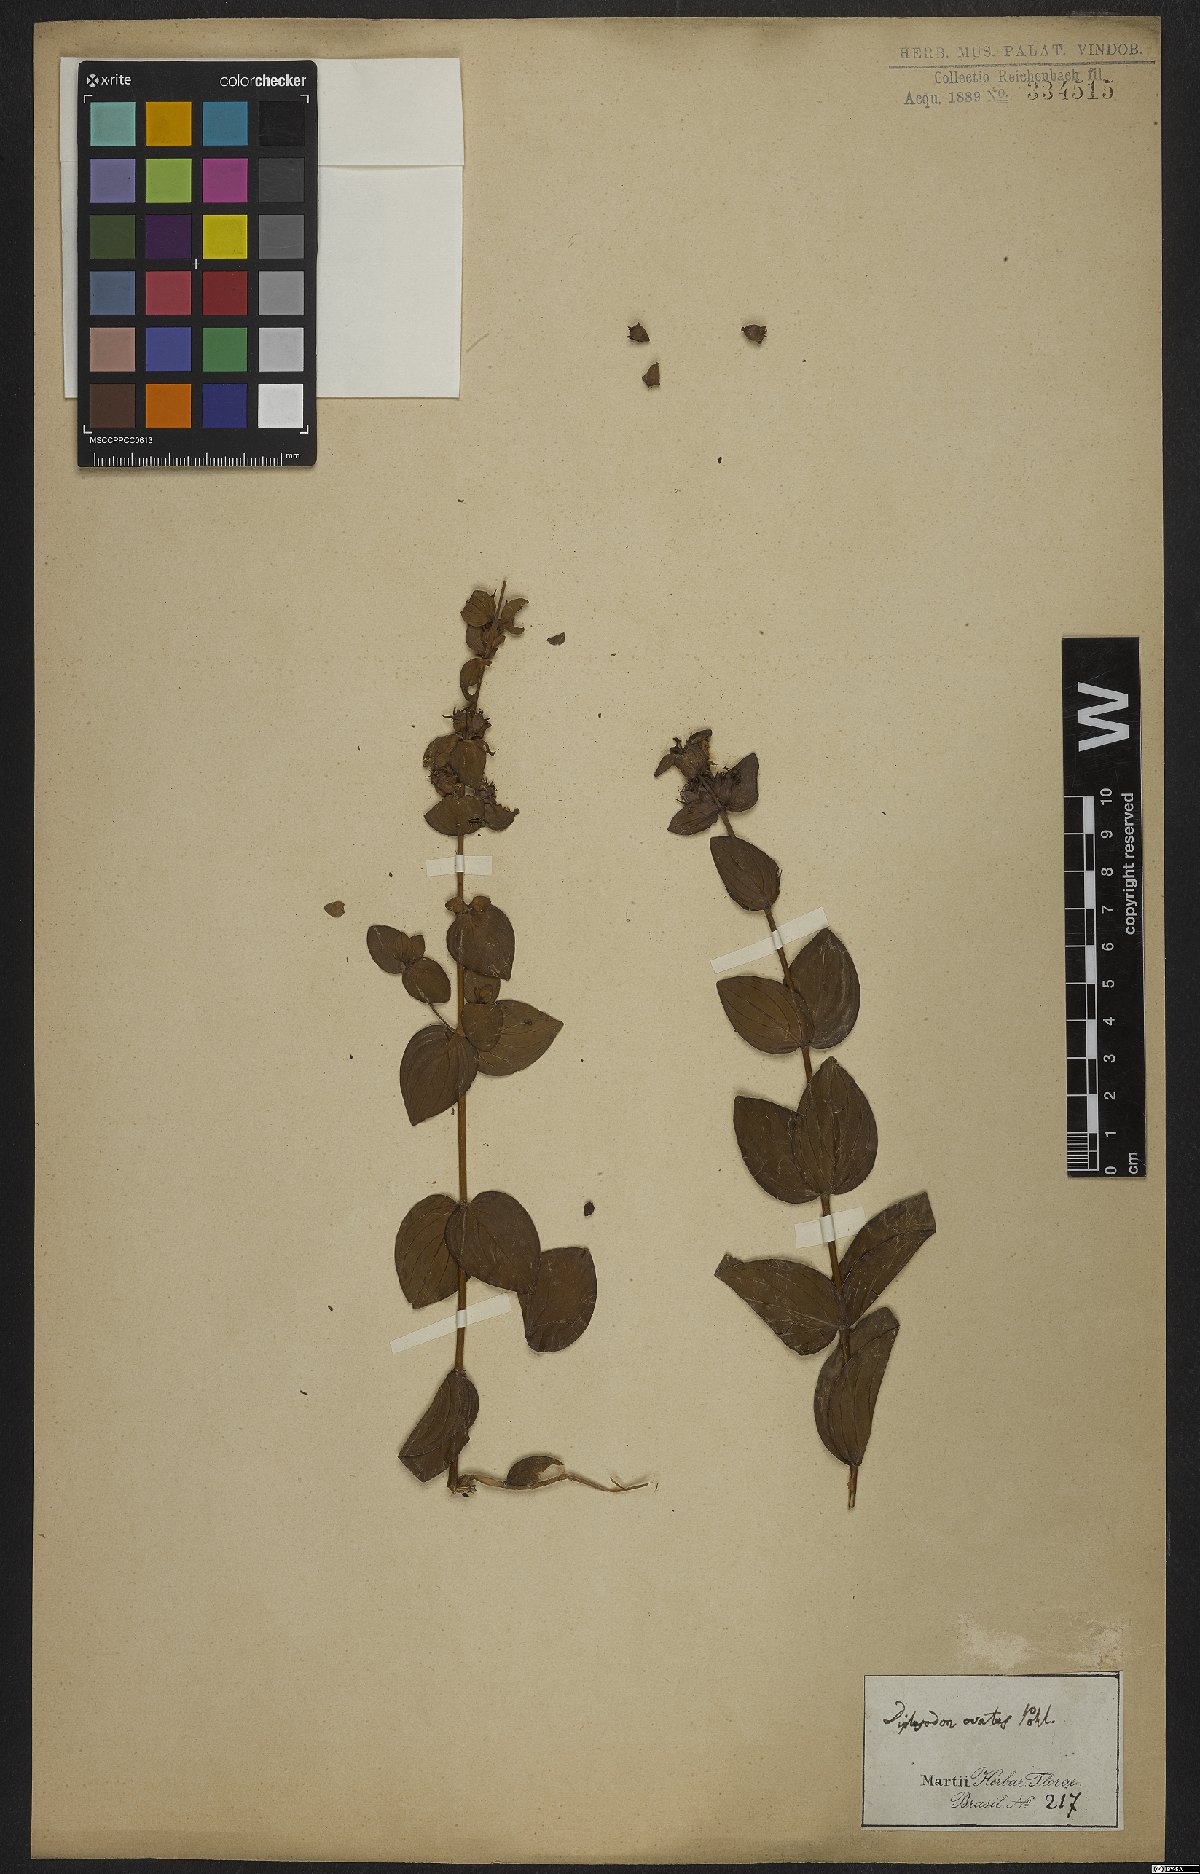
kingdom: Plantae
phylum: Tracheophyta
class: Magnoliopsida
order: Myrtales
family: Lythraceae
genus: Cuphea
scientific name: Cuphea llavea
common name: Tiny-mice
